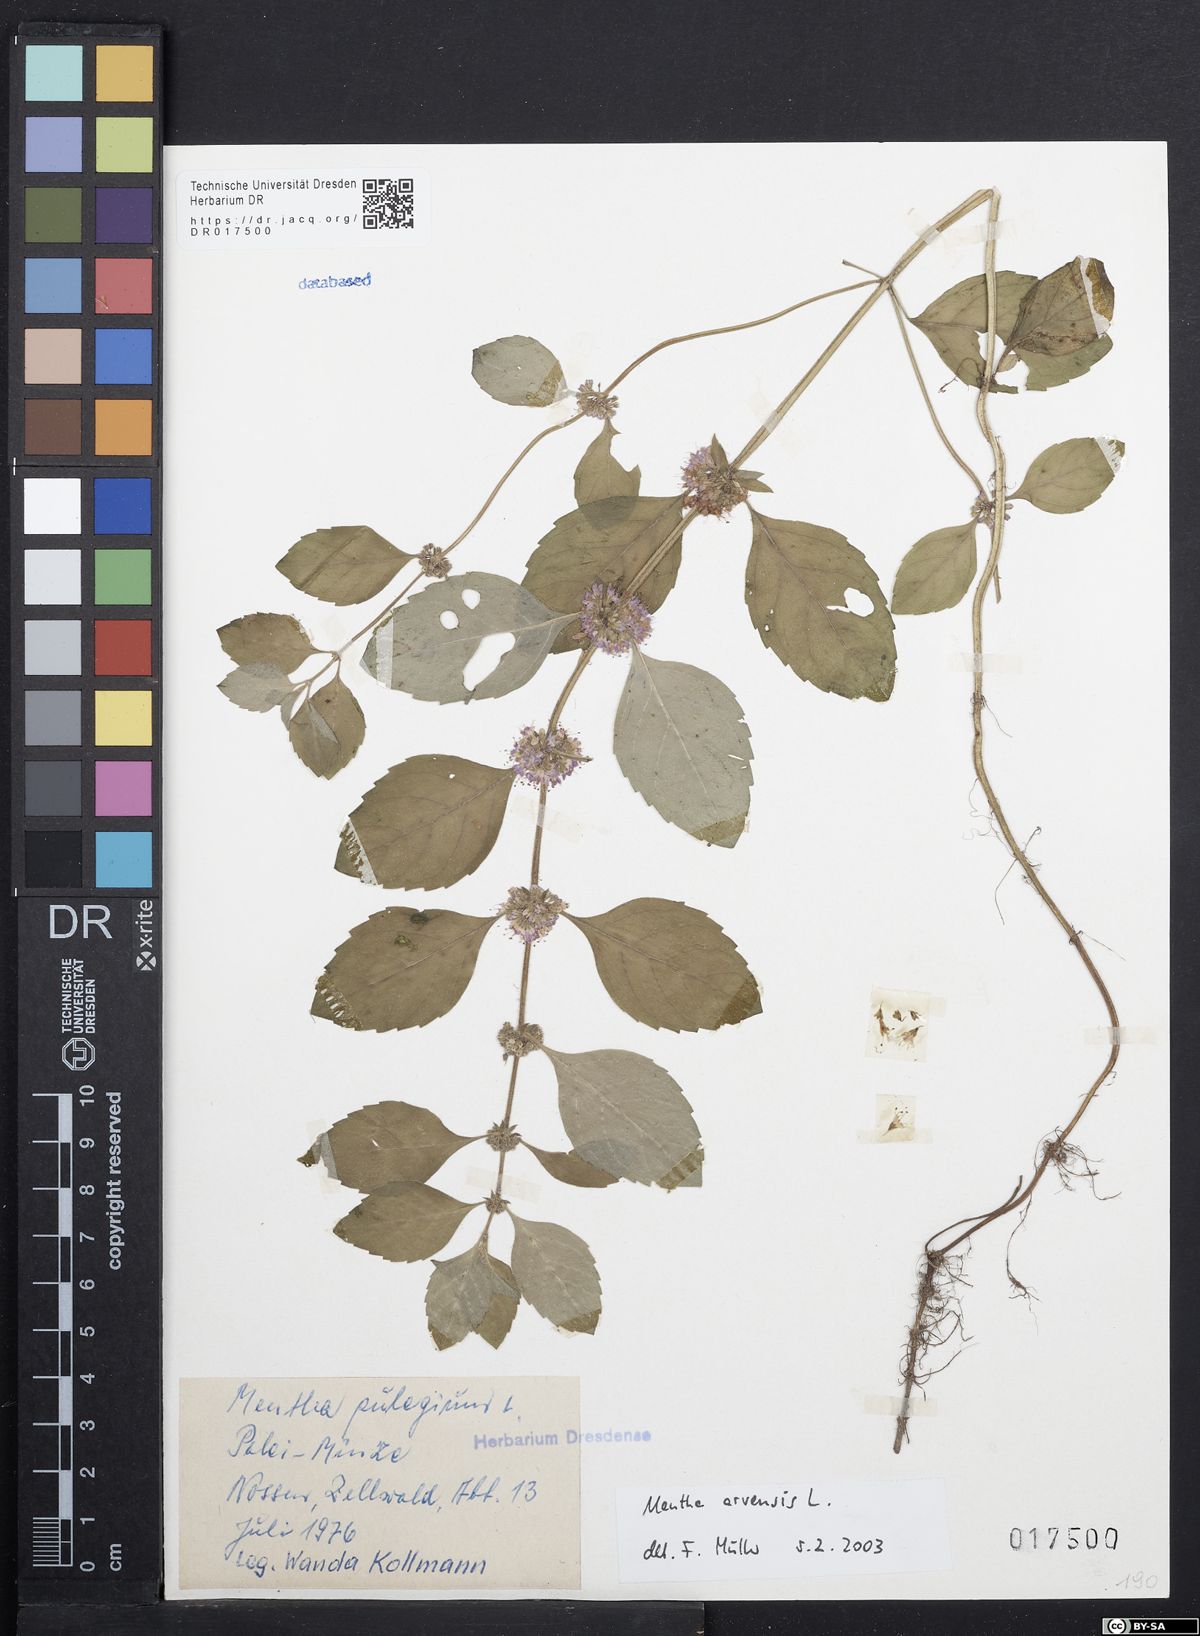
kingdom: Plantae
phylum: Tracheophyta
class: Magnoliopsida
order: Lamiales
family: Lamiaceae
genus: Mentha
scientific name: Mentha arvensis
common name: Corn mint
